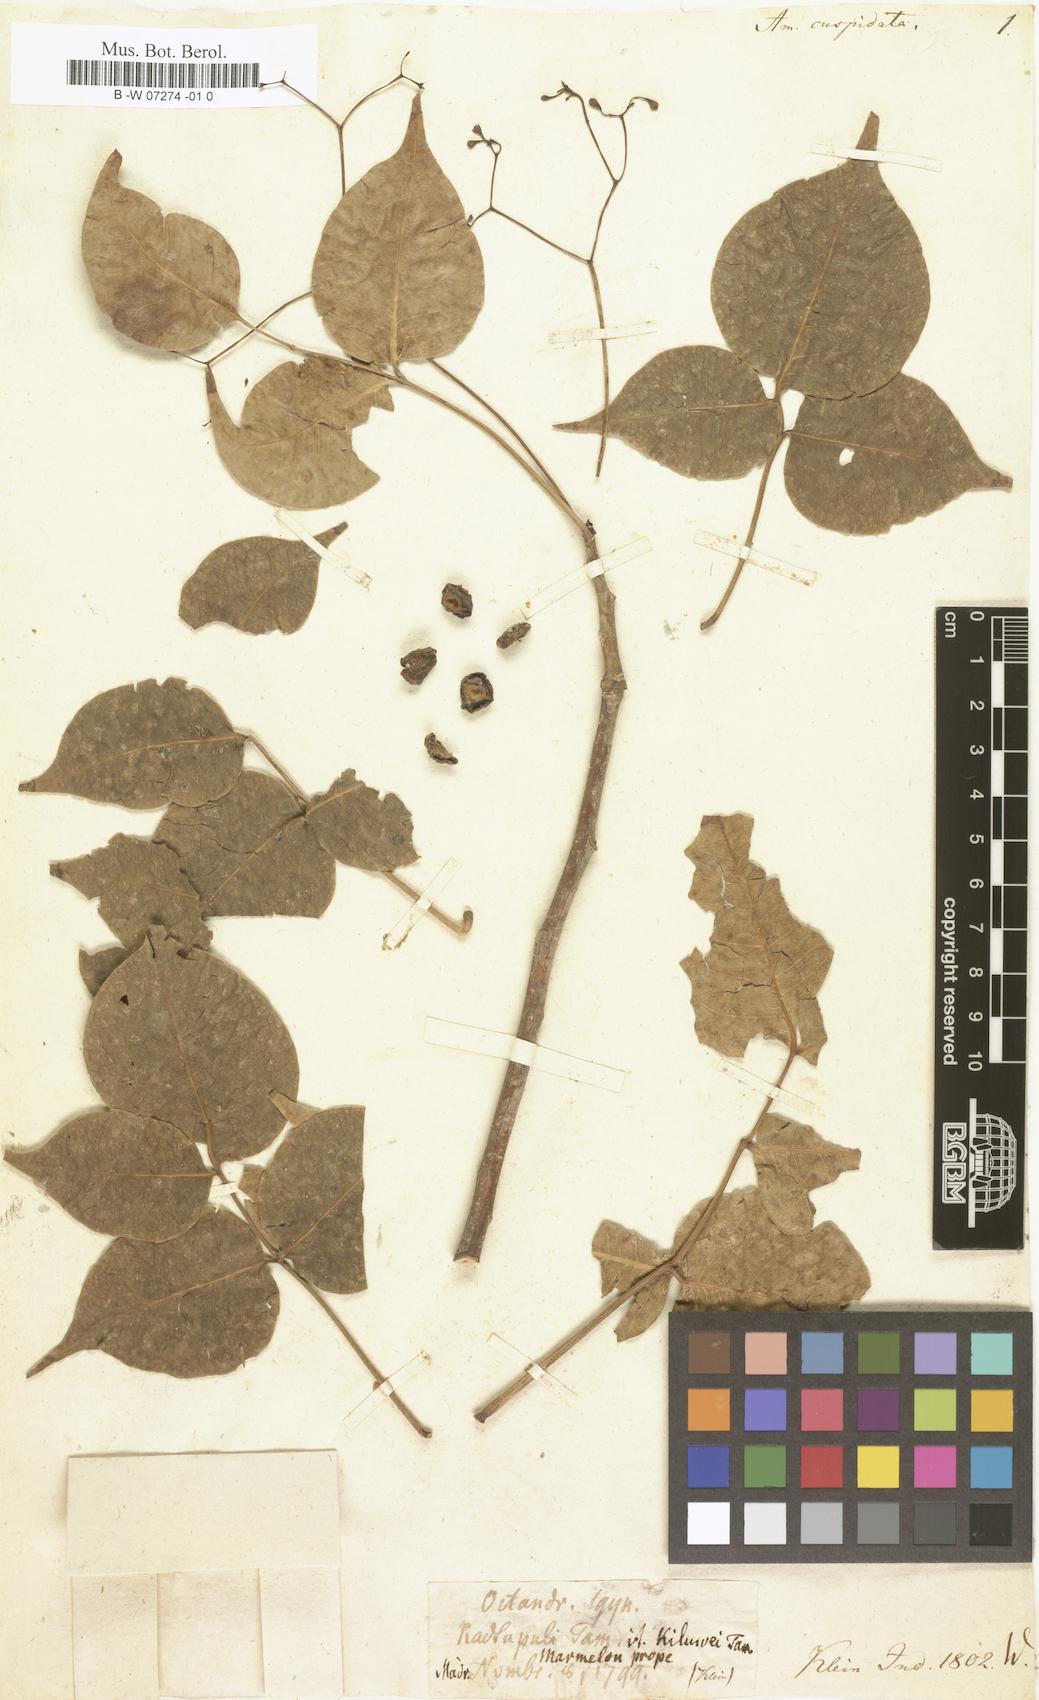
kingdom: Plantae
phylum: Tracheophyta
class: Magnoliopsida
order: Sapindales
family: Rutaceae
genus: Amyris
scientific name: Amyris
